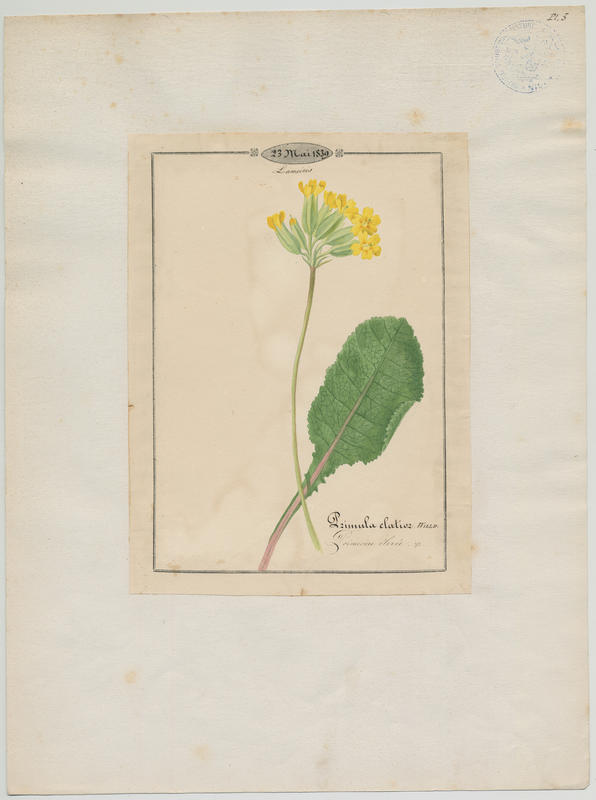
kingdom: Plantae
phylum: Tracheophyta
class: Magnoliopsida
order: Ericales
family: Primulaceae
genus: Primula
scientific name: Primula elatior
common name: Oxlip
